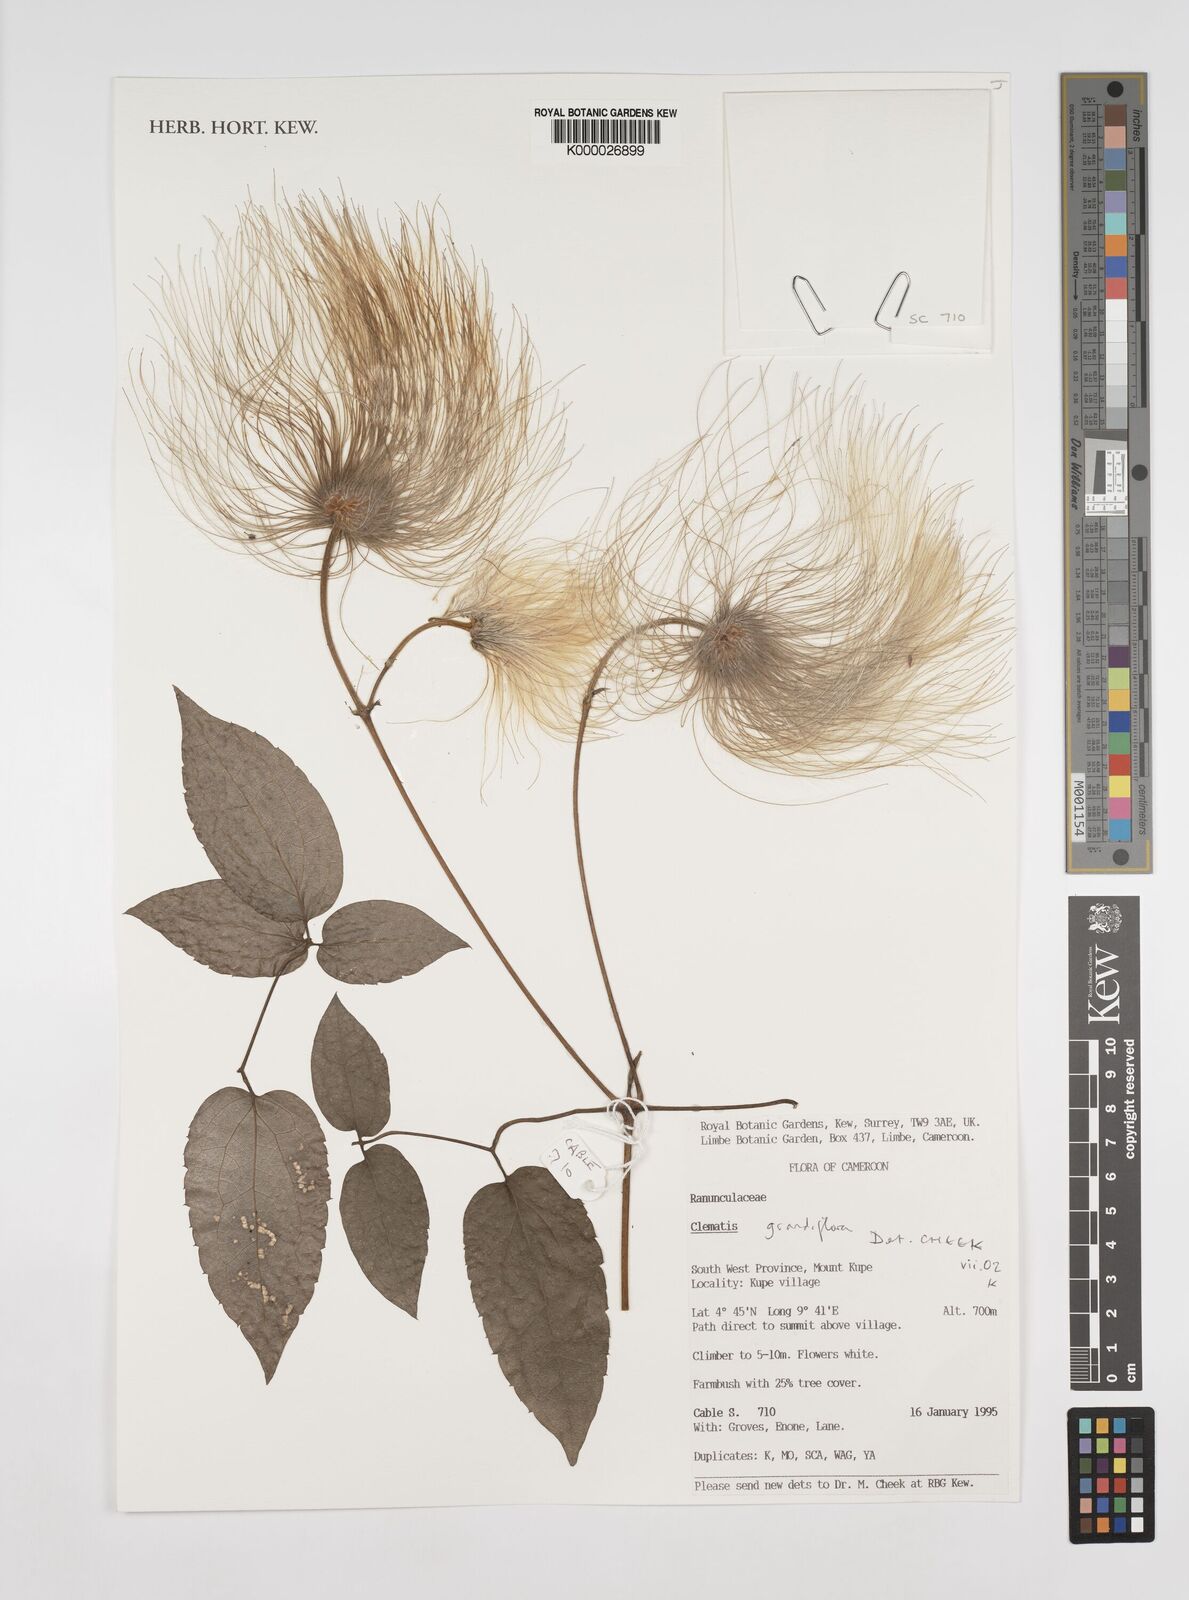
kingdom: Plantae
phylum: Tracheophyta
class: Magnoliopsida
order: Ranunculales
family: Ranunculaceae
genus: Clematis
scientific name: Clematis grandiflora
